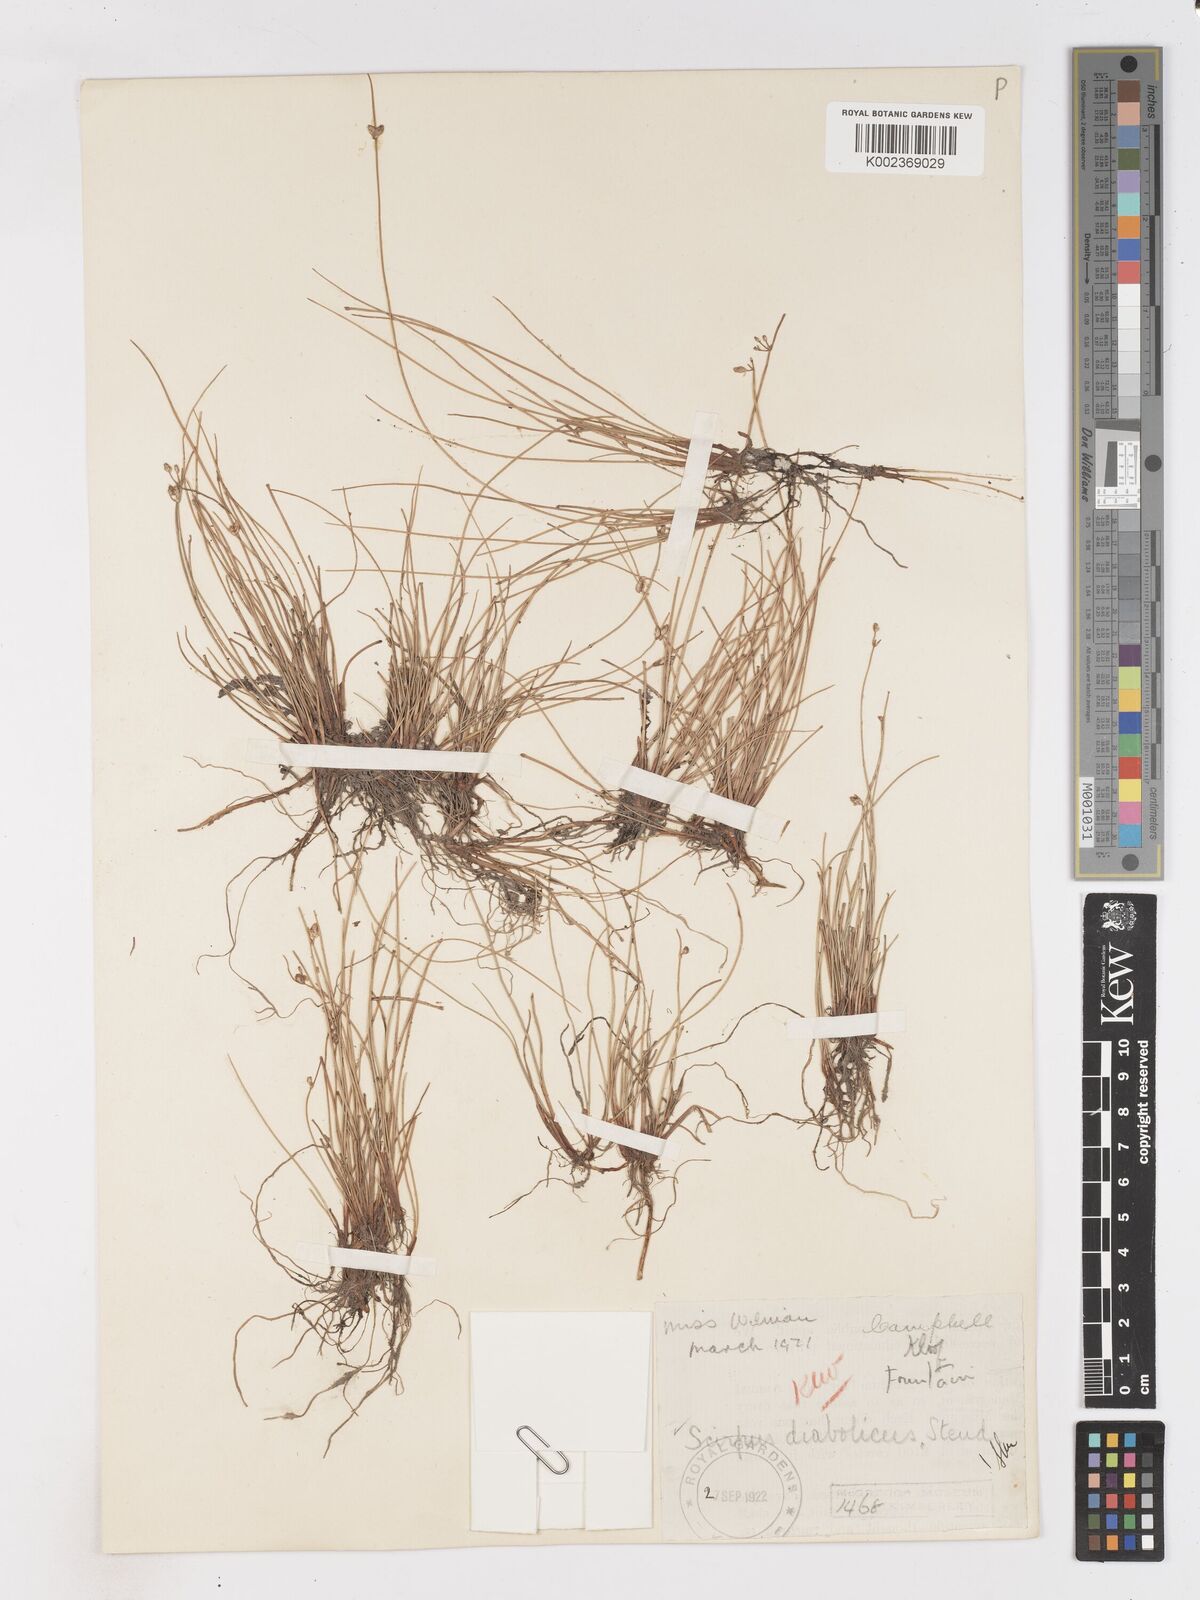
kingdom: Plantae
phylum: Tracheophyta
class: Liliopsida
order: Poales
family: Cyperaceae
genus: Isolepis
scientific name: Isolepis diabolica
